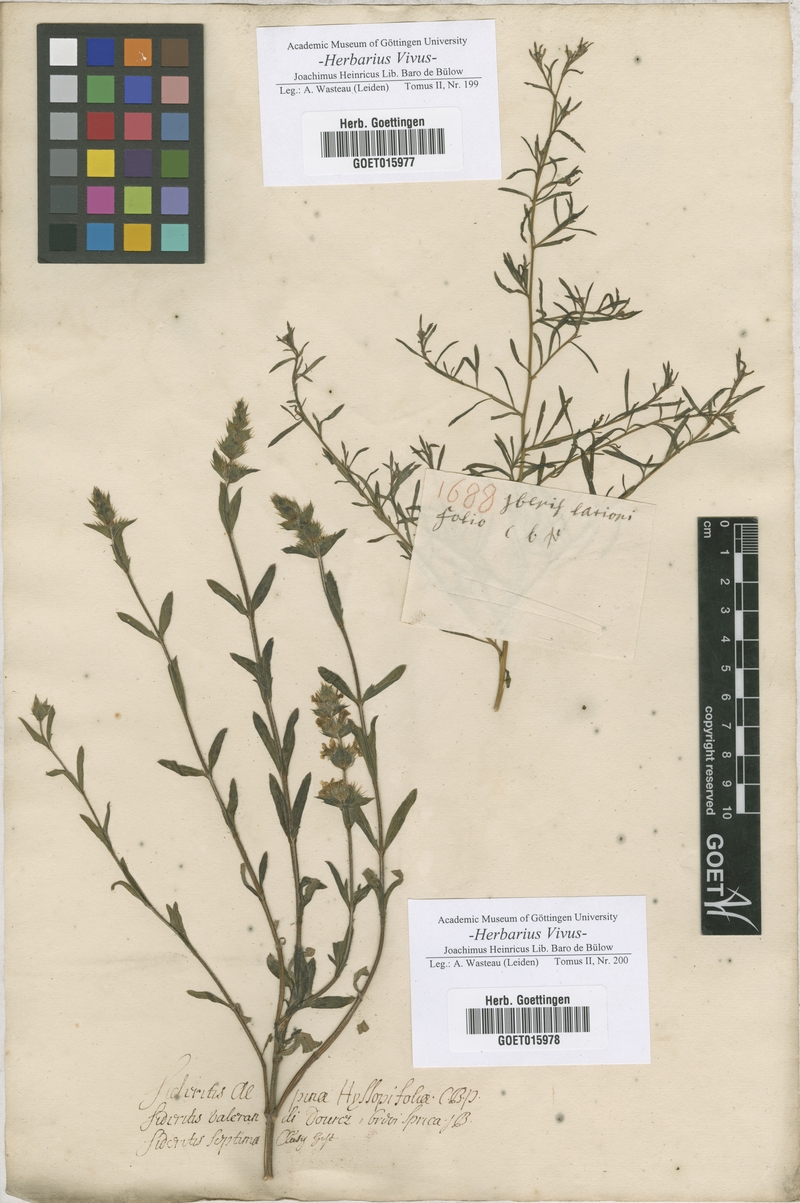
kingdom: Plantae
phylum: Tracheophyta
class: Magnoliopsida
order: Brassicales
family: Brassicaceae
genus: Iberis
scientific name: Iberis
